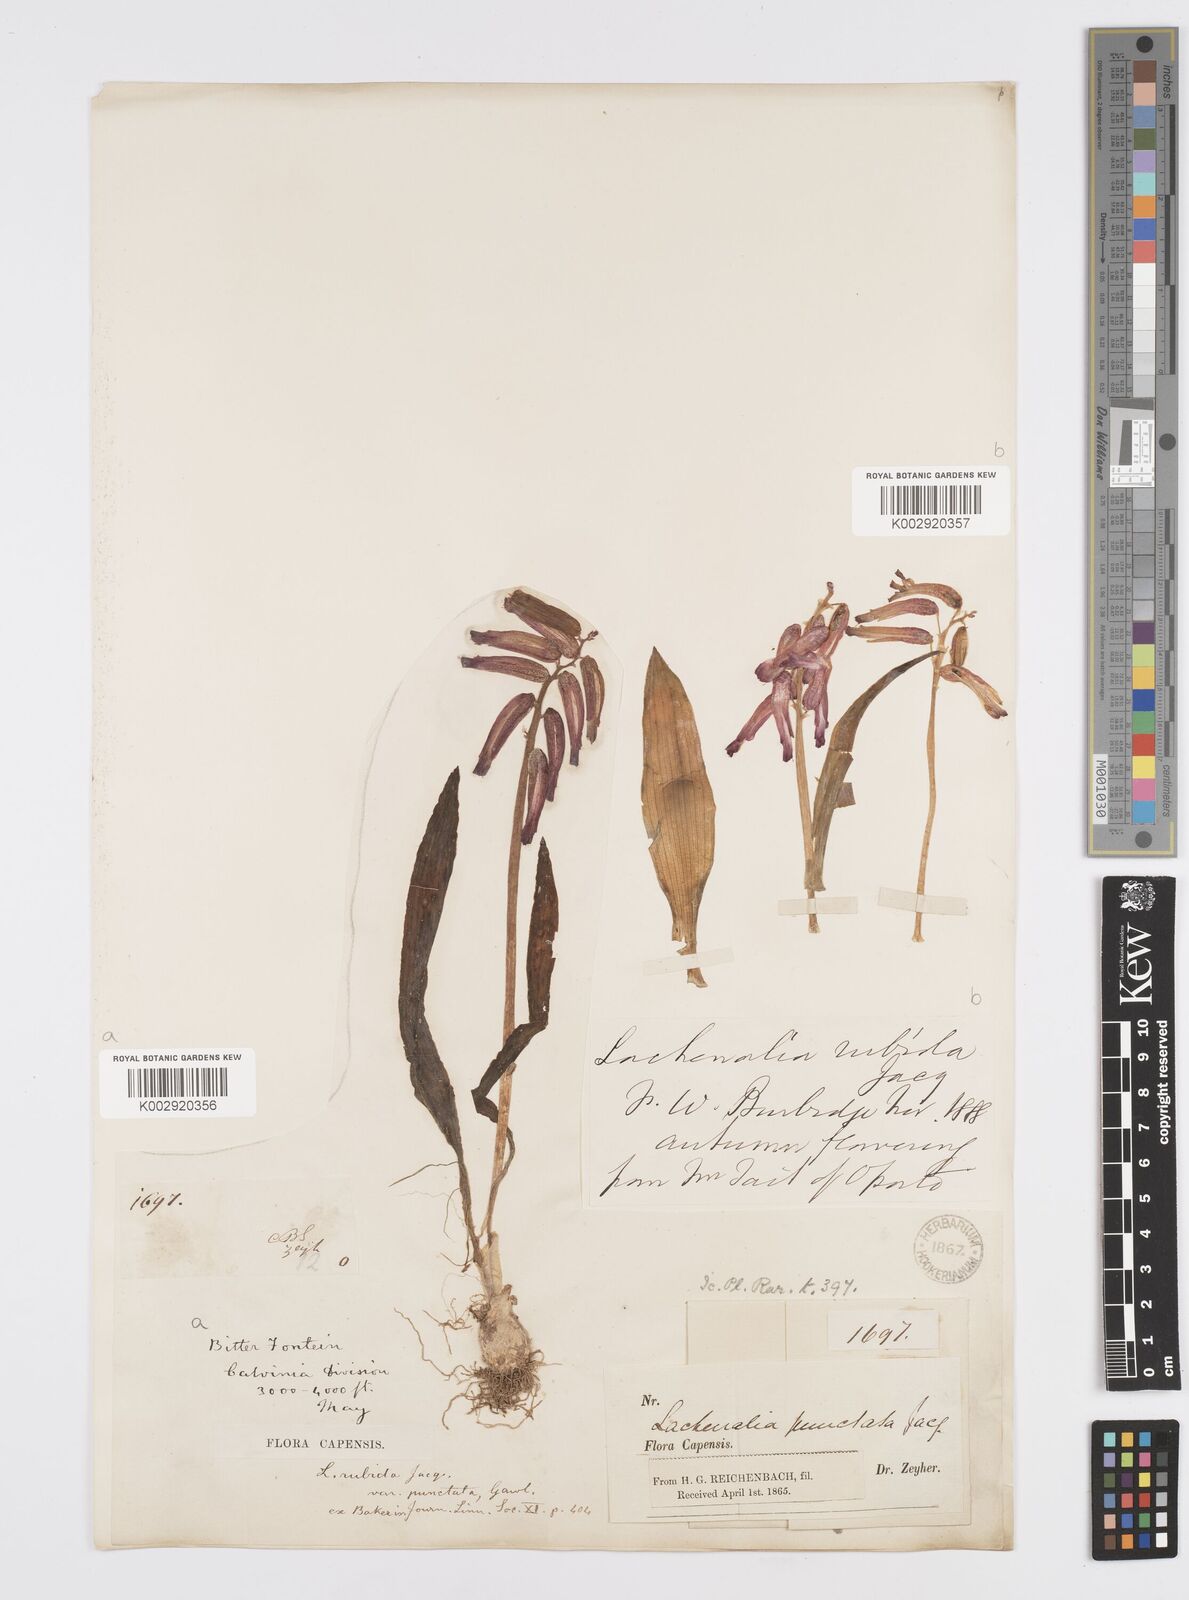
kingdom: Plantae
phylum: Tracheophyta
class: Liliopsida
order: Asparagales
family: Asparagaceae
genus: Lachenalia
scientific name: Lachenalia punctata
